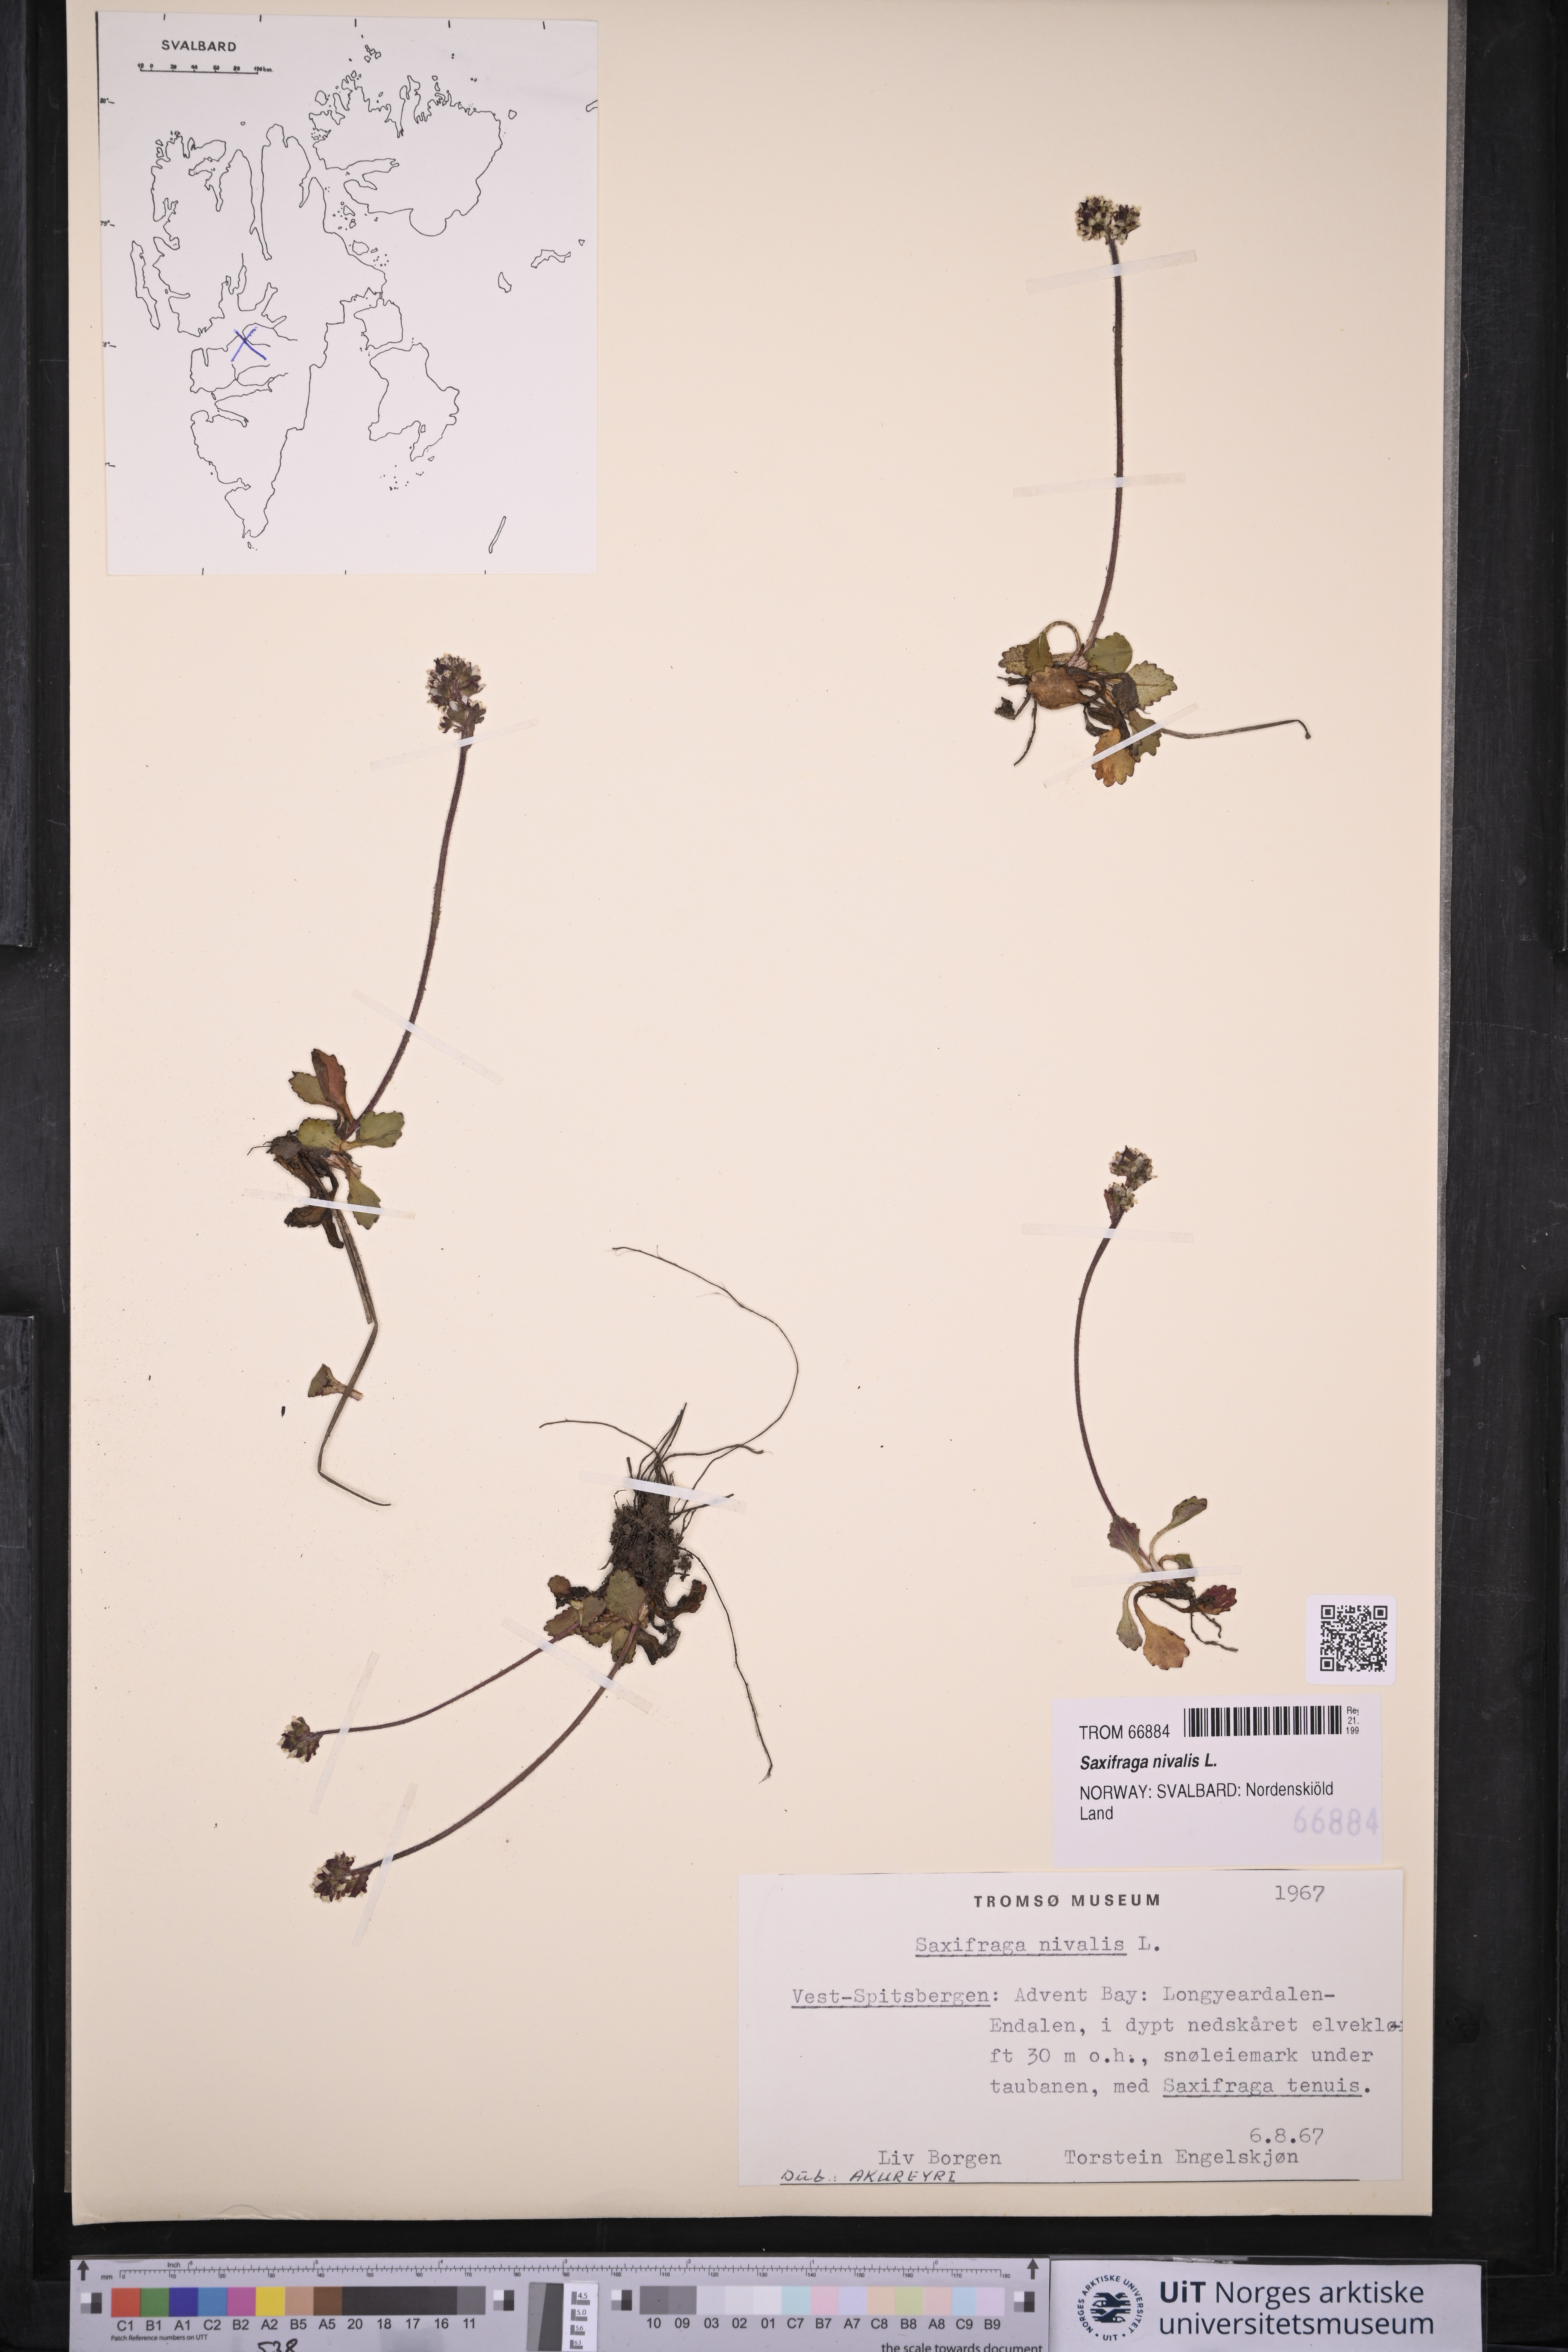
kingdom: Plantae
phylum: Tracheophyta
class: Magnoliopsida
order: Saxifragales
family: Saxifragaceae
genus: Micranthes
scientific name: Micranthes nivalis
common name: Alpine saxifrage
